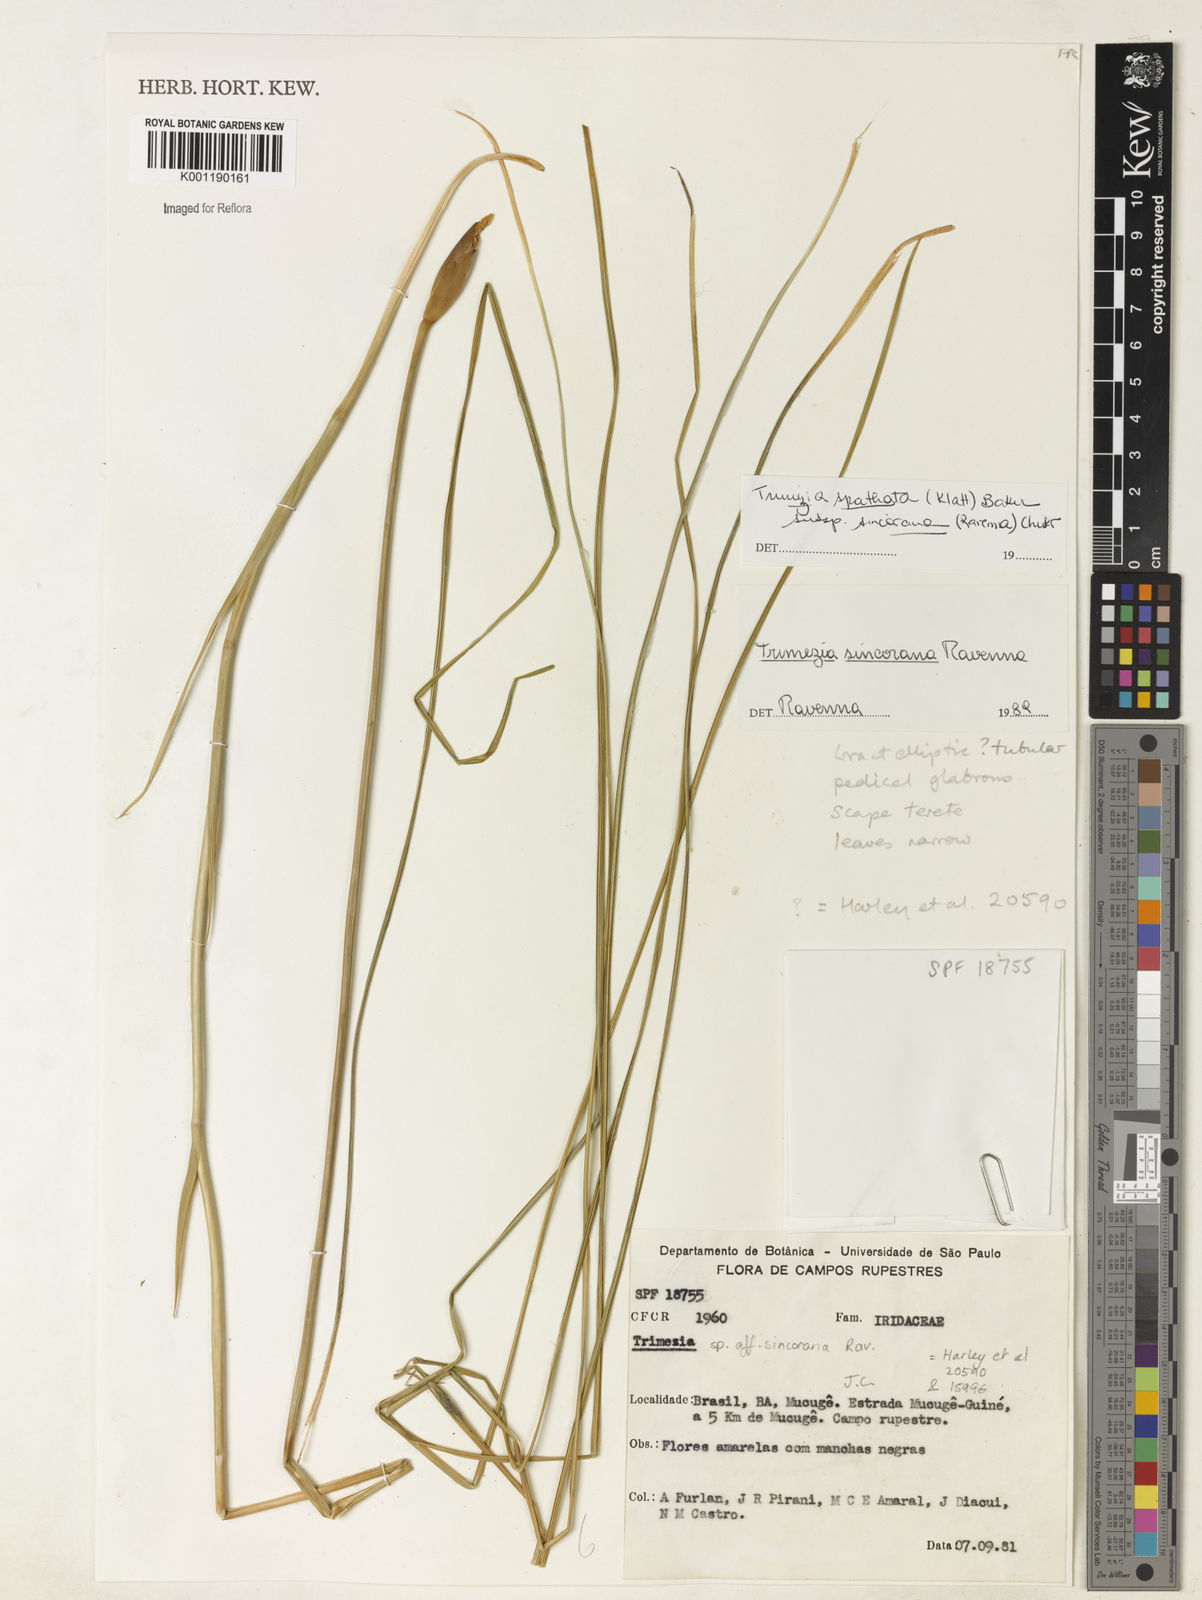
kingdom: Plantae
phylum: Tracheophyta
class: Liliopsida
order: Asparagales
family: Iridaceae
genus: Trimezia
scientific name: Trimezia spathata
